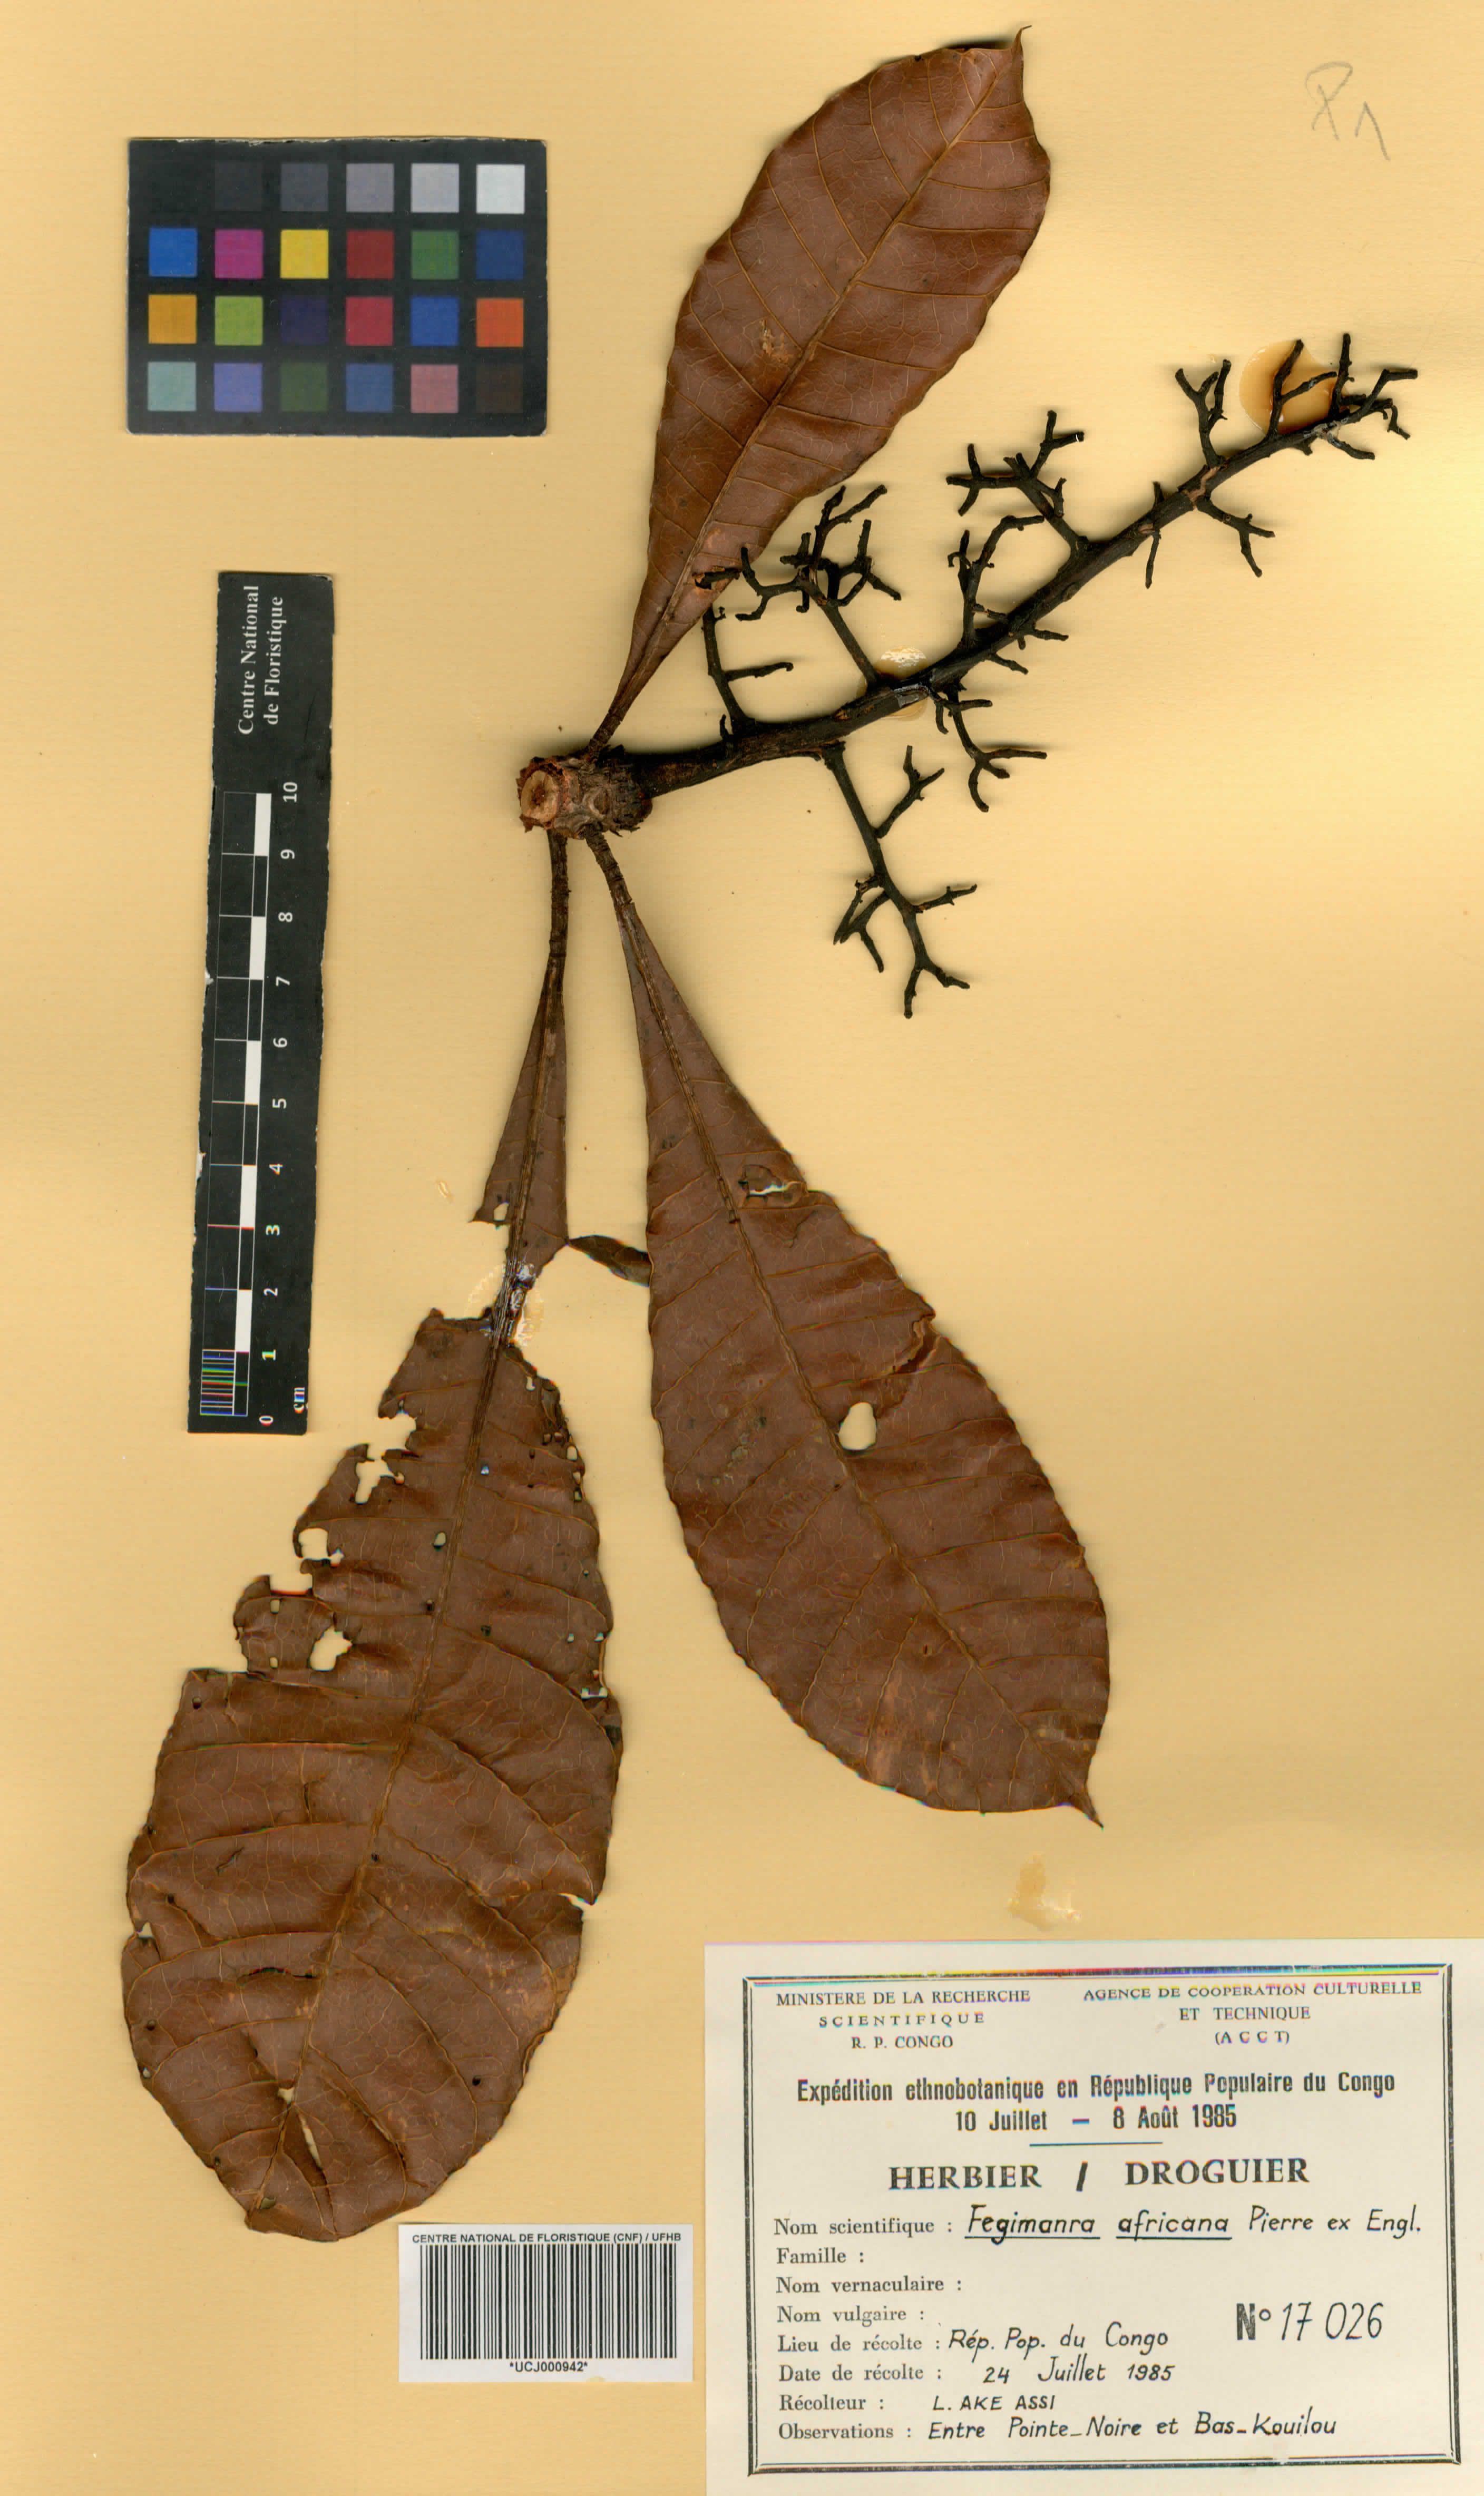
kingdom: Plantae
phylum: Tracheophyta
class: Magnoliopsida
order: Sapindales
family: Anacardiaceae
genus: Fegimanra
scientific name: Fegimanra acuminatissima
